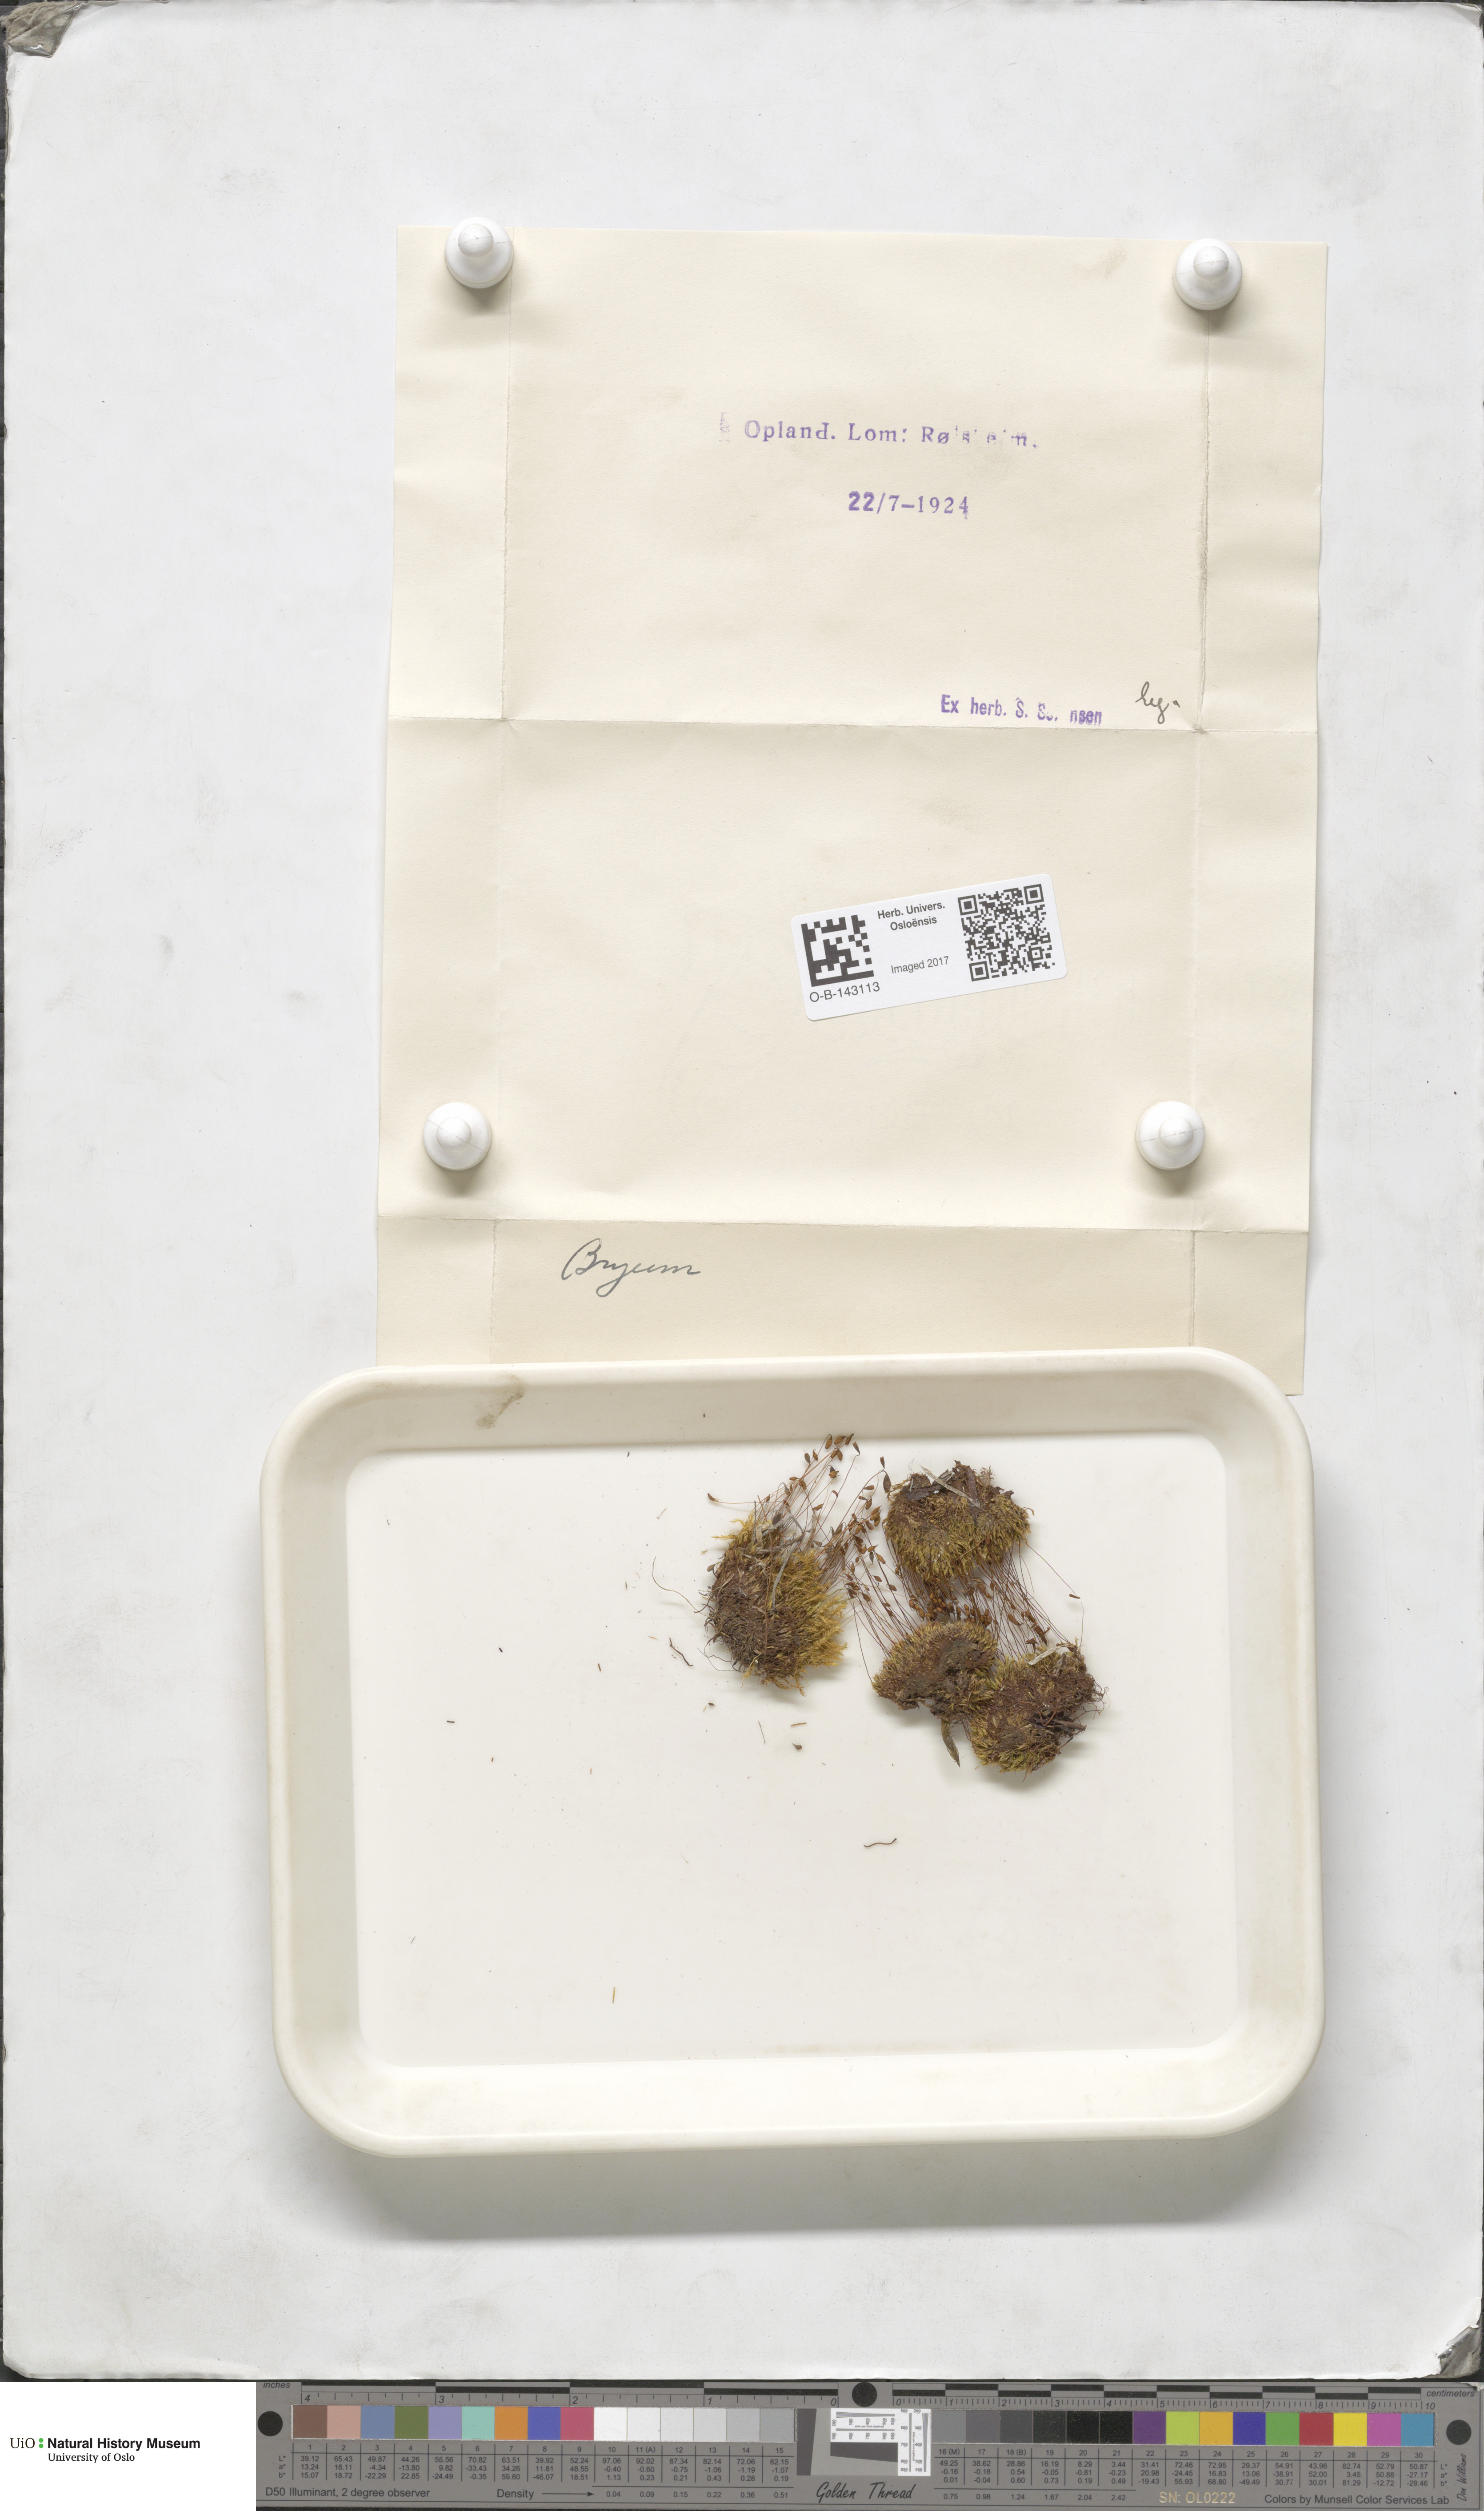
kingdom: Plantae
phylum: Bryophyta
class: Bryopsida
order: Bryales
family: Bryaceae
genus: Bryum
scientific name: Bryum
